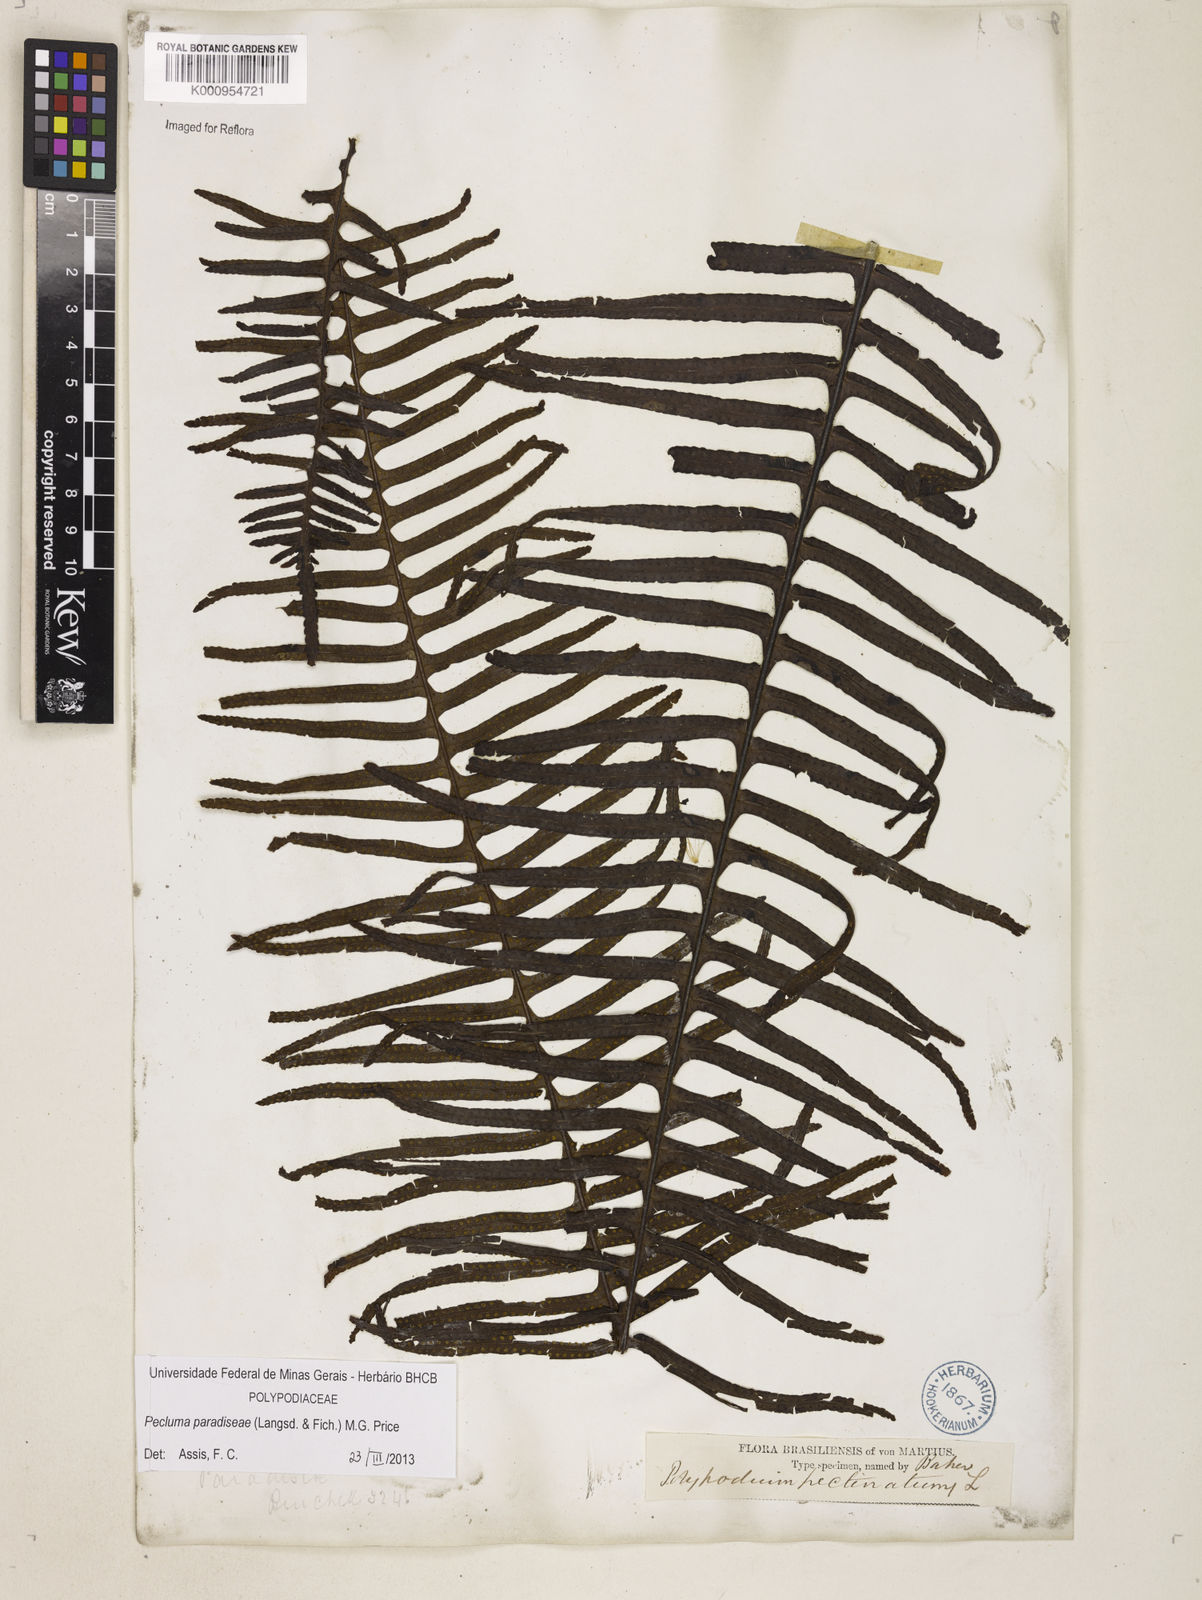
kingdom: Plantae
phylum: Tracheophyta
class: Polypodiopsida
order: Polypodiales
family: Polypodiaceae
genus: Pecluma
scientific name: Pecluma paradiseae
